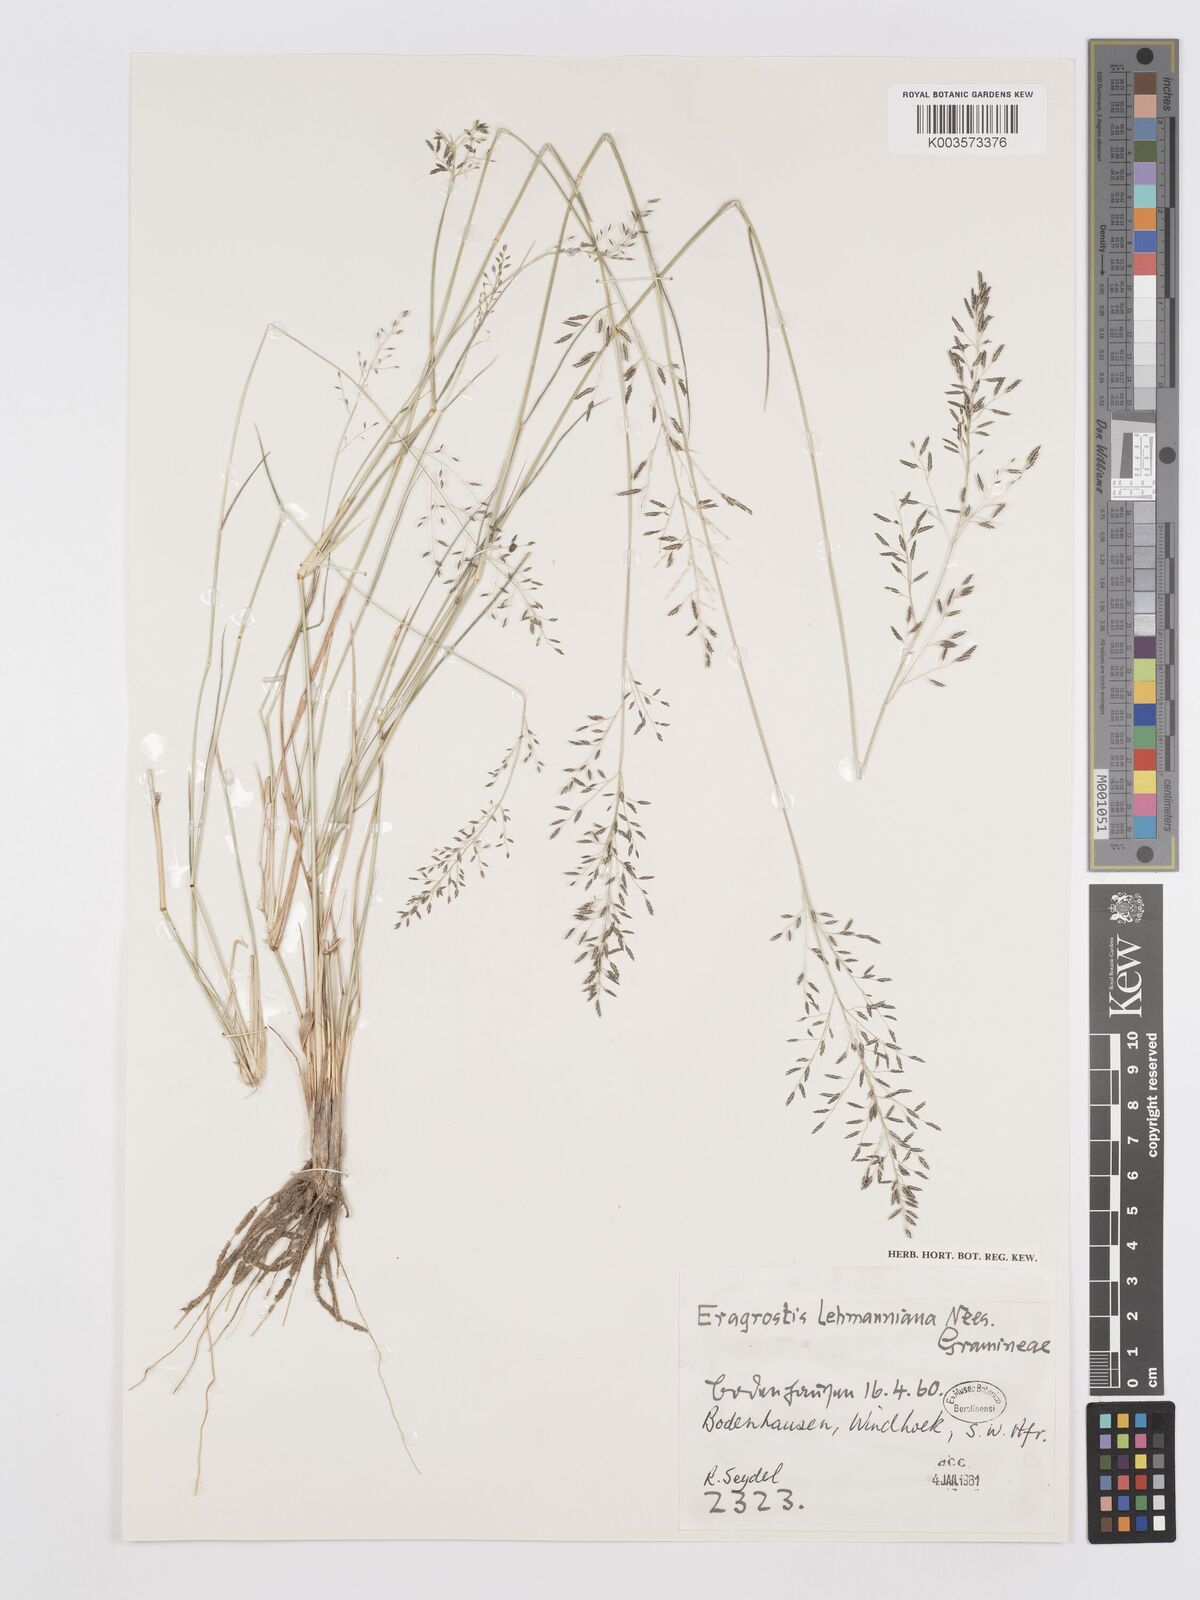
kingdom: Plantae
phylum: Tracheophyta
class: Liliopsida
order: Poales
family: Poaceae
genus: Eragrostis
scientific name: Eragrostis lehmanniana
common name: Lehmann lovegrass
